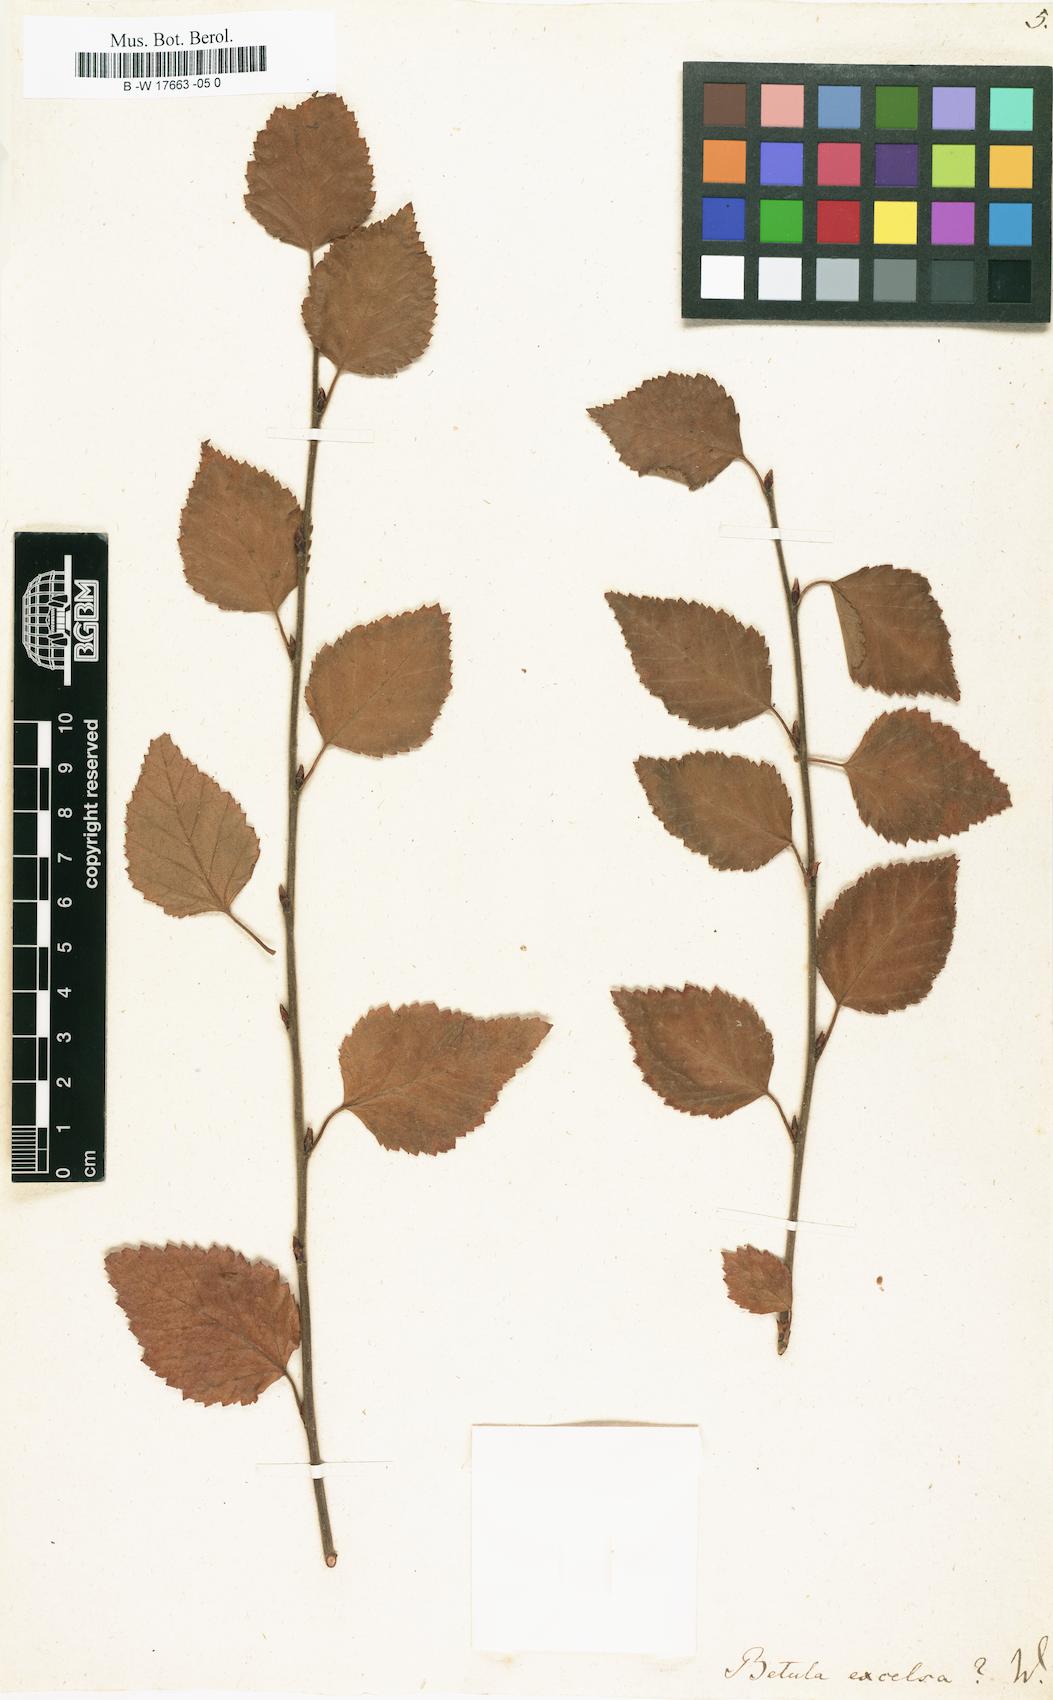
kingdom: Plantae
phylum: Tracheophyta
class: Magnoliopsida
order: Fagales
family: Betulaceae
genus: Betula
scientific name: Betula papyrifera
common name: Paper birch
